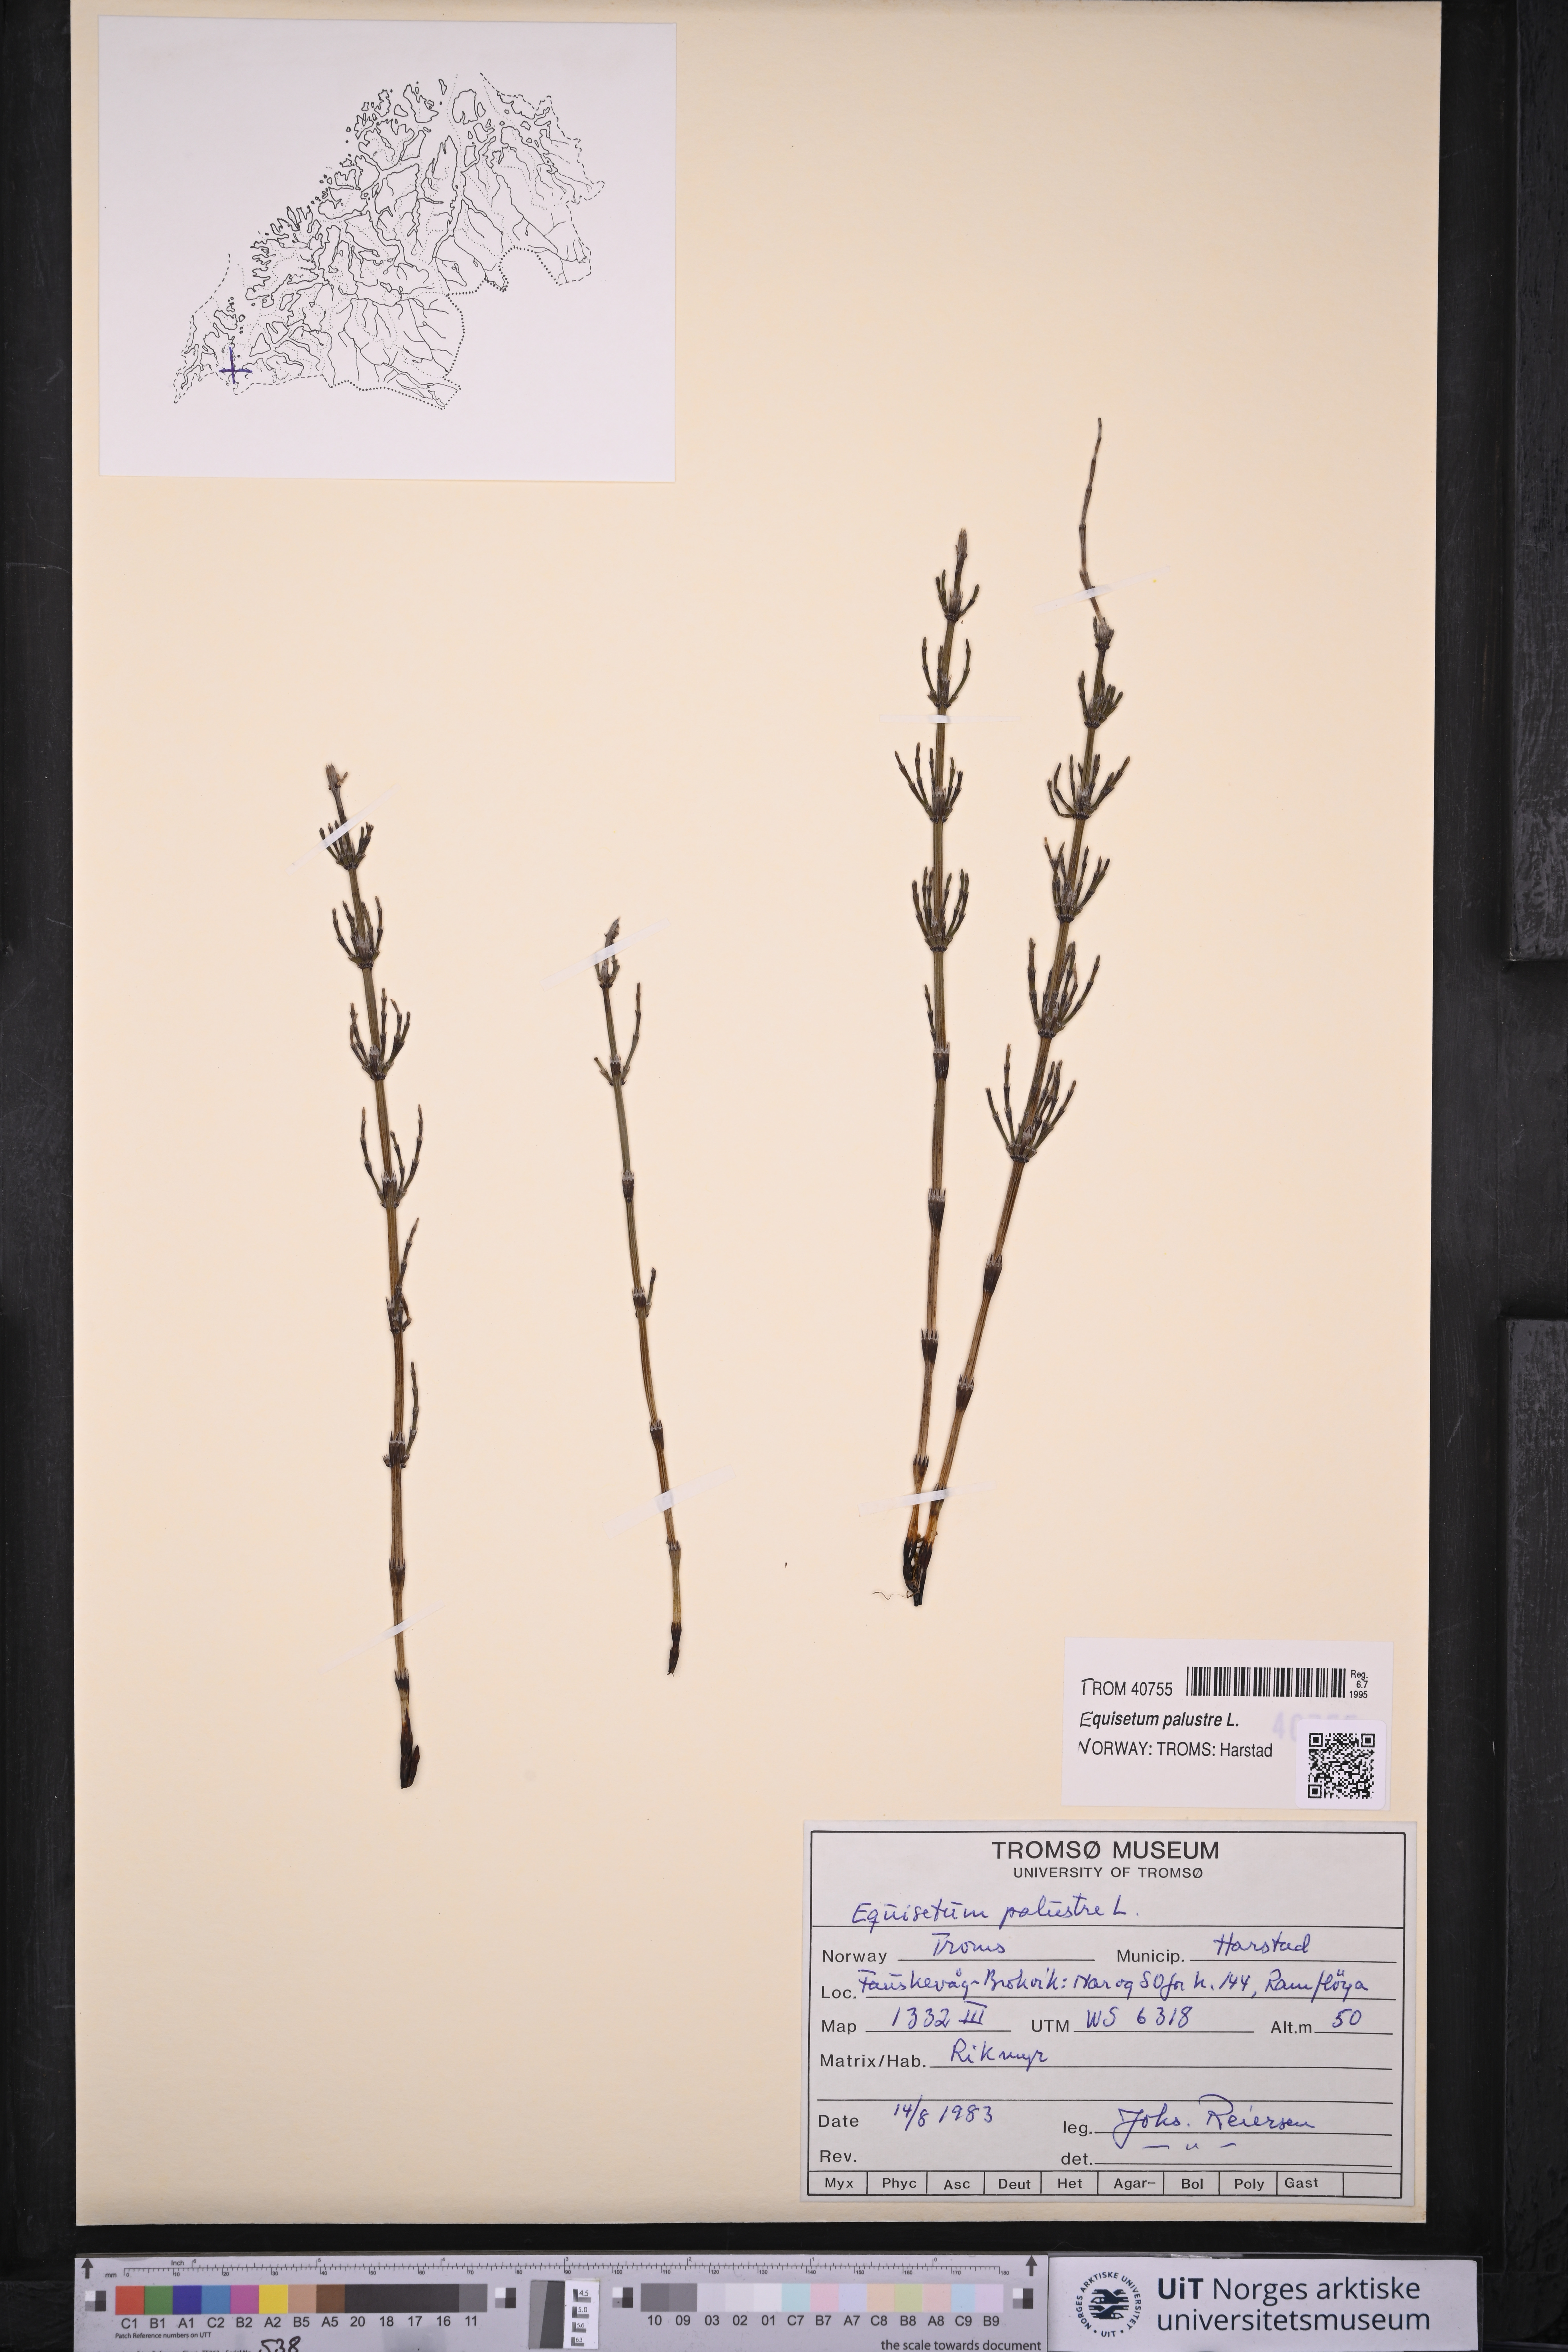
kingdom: Plantae
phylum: Tracheophyta
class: Polypodiopsida
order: Equisetales
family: Equisetaceae
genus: Equisetum
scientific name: Equisetum palustre
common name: Marsh horsetail
